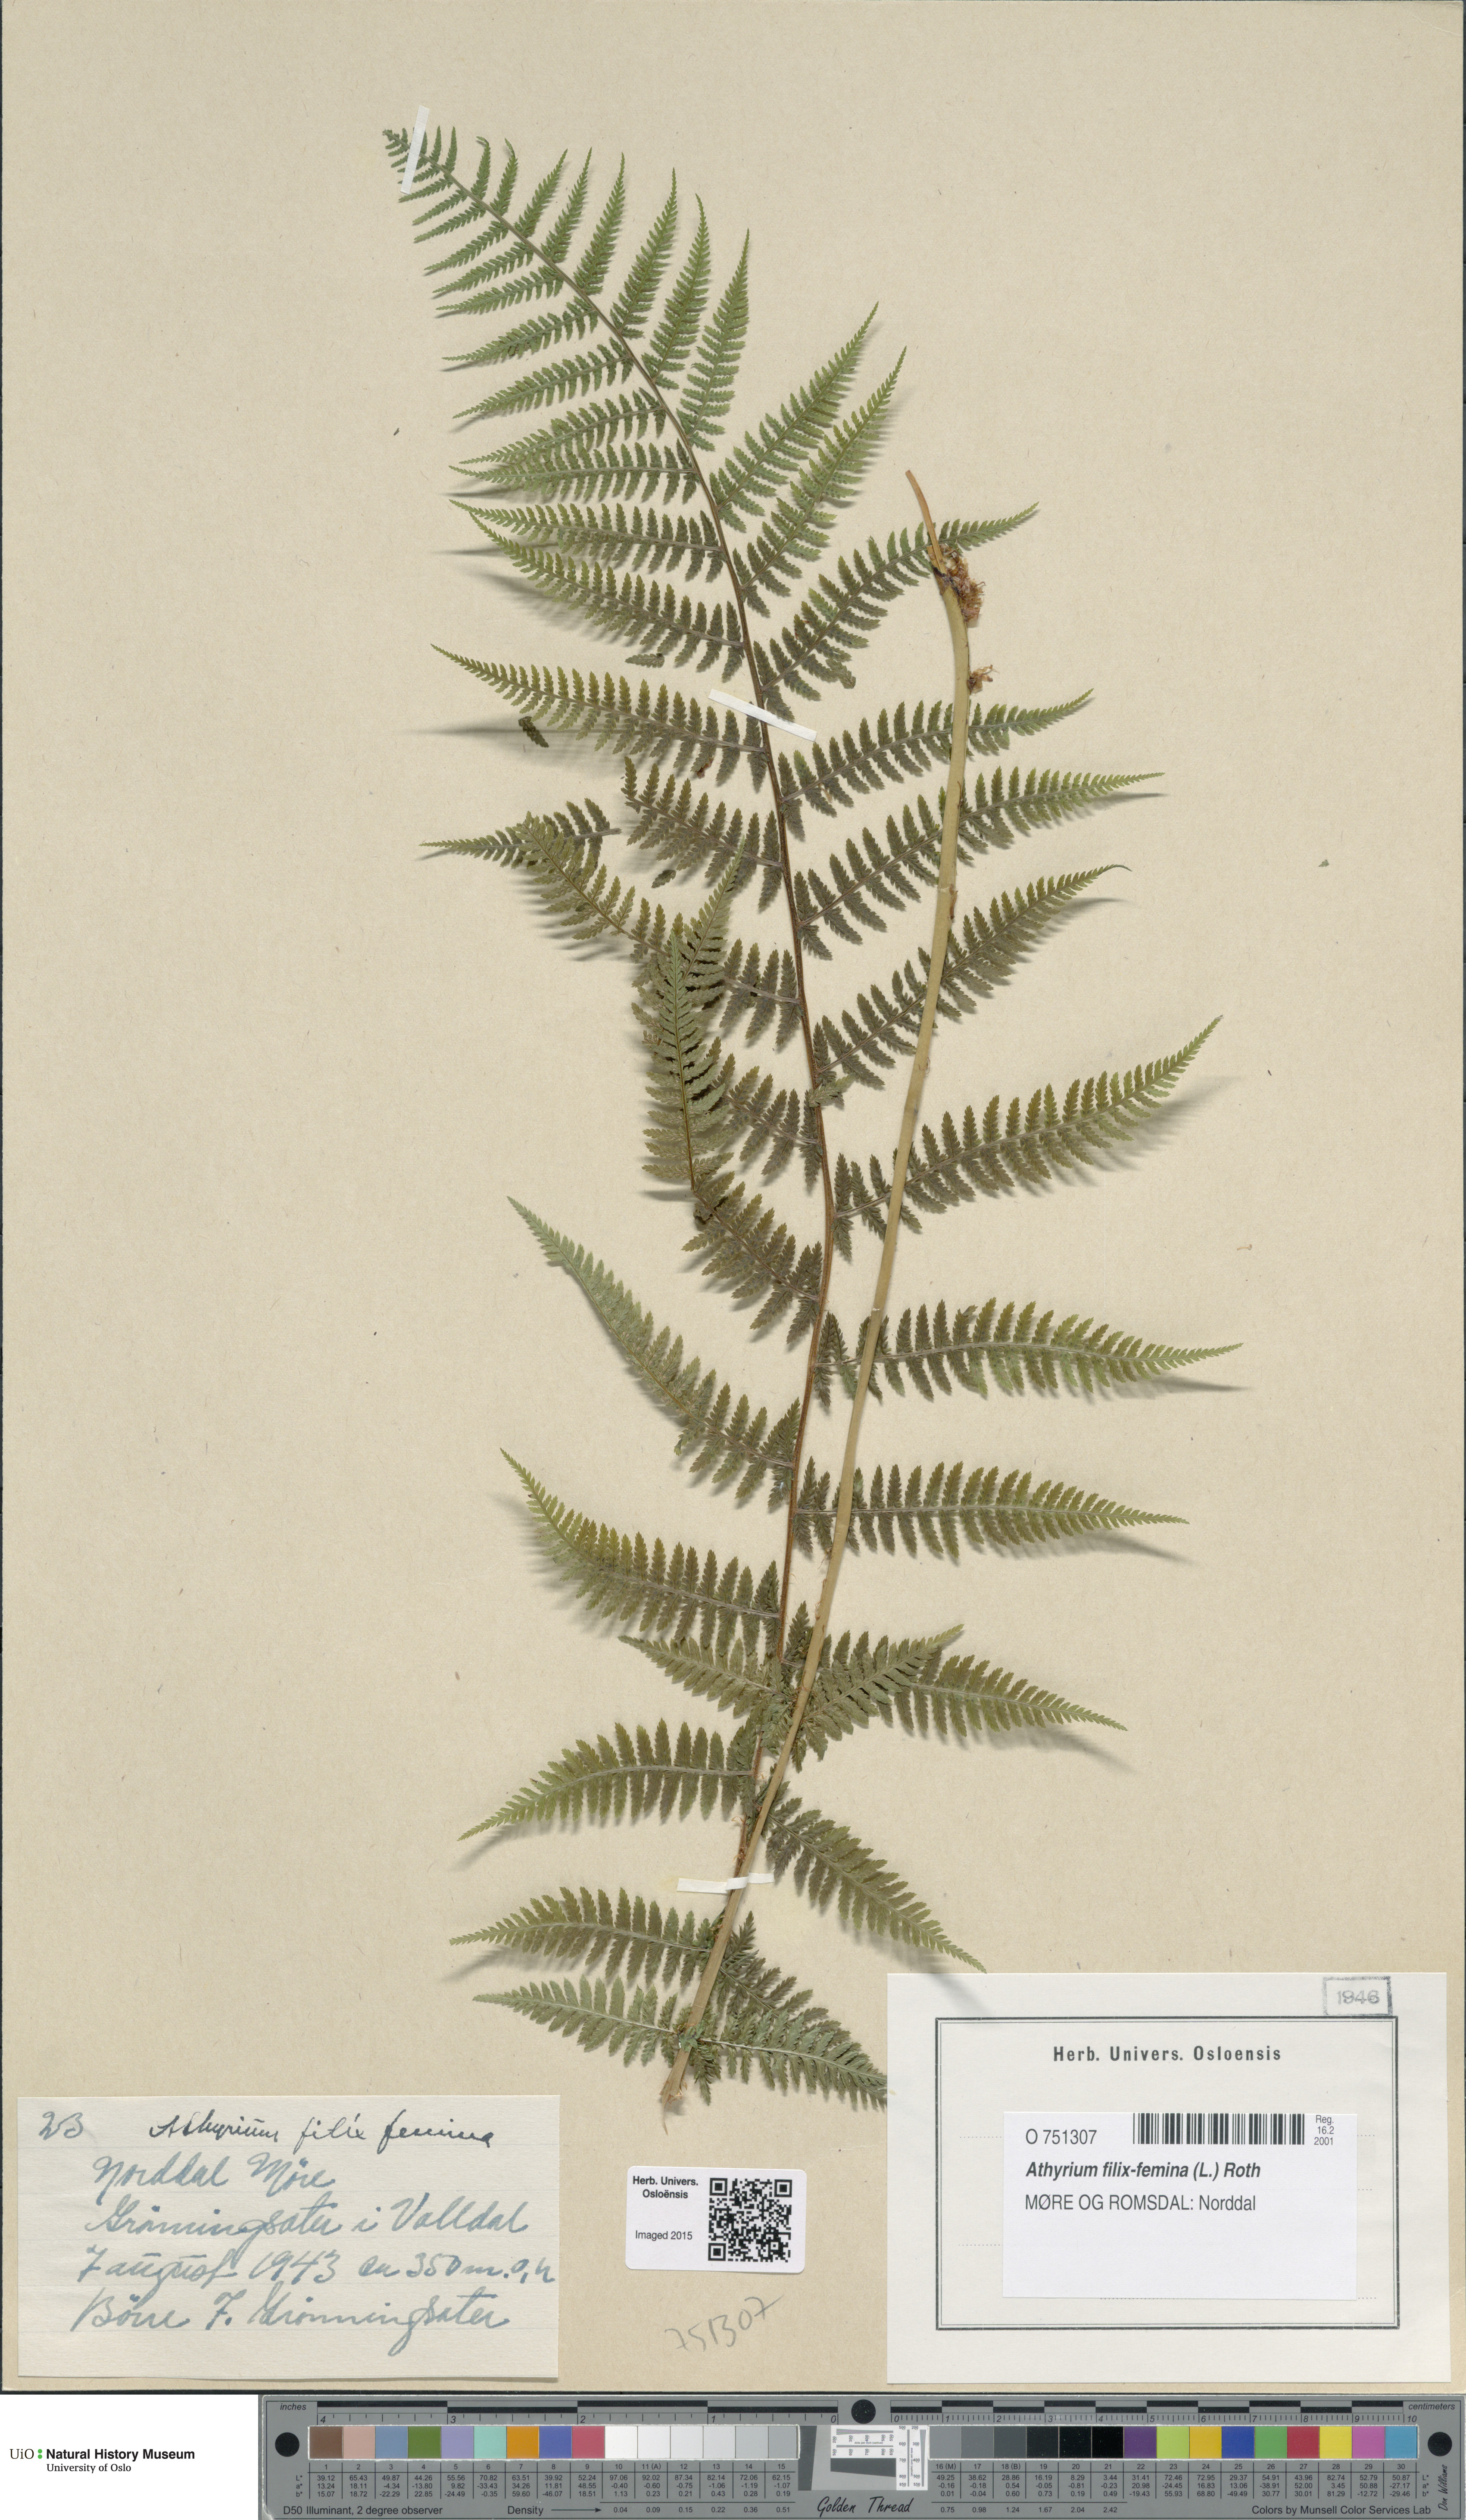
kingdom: Plantae
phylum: Tracheophyta
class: Polypodiopsida
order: Polypodiales
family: Athyriaceae
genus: Athyrium
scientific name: Athyrium filix-femina
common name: Lady fern
